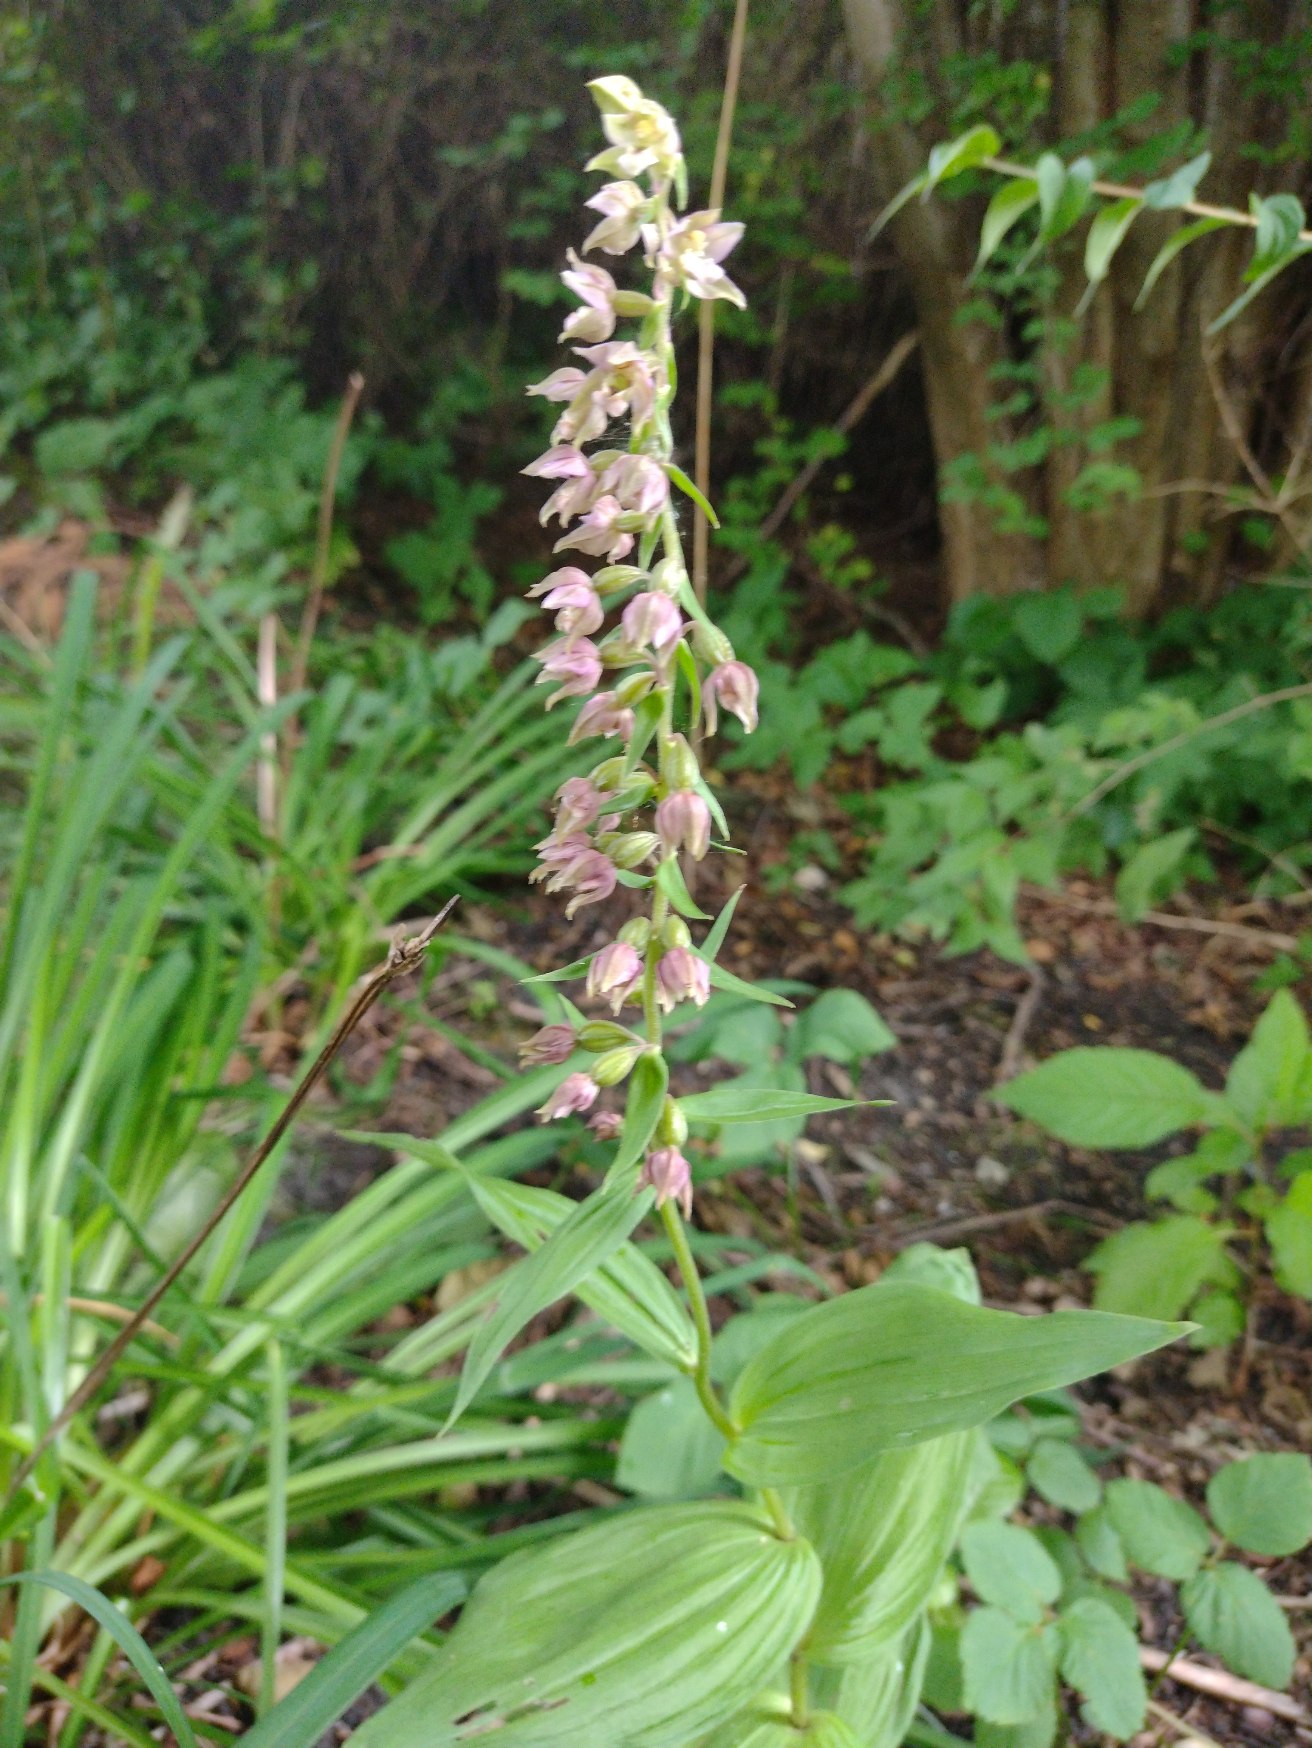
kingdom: Plantae
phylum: Tracheophyta
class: Liliopsida
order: Asparagales
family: Orchidaceae
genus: Epipactis
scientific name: Epipactis helleborine
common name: Skov-hullæbe
